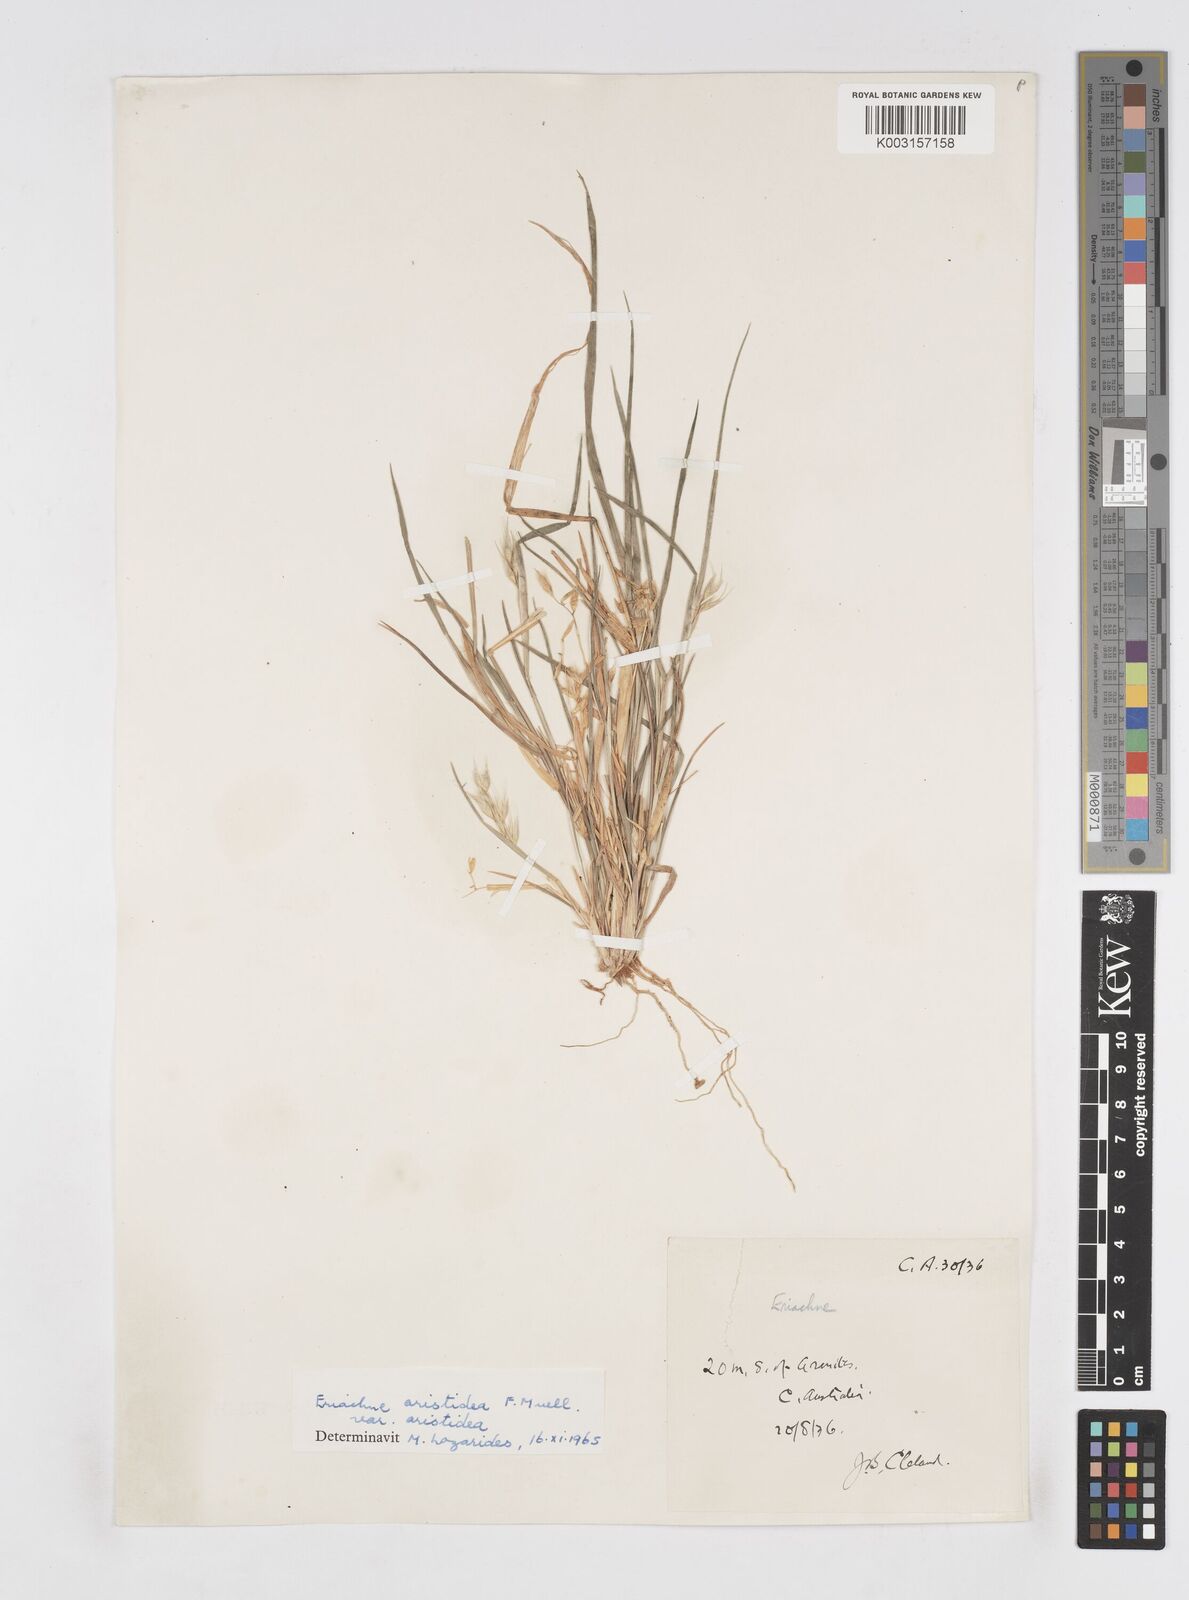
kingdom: Plantae
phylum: Tracheophyta
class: Liliopsida
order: Poales
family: Poaceae
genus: Eriachne
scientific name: Eriachne aristidea
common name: Three-awn wanderrie grass
